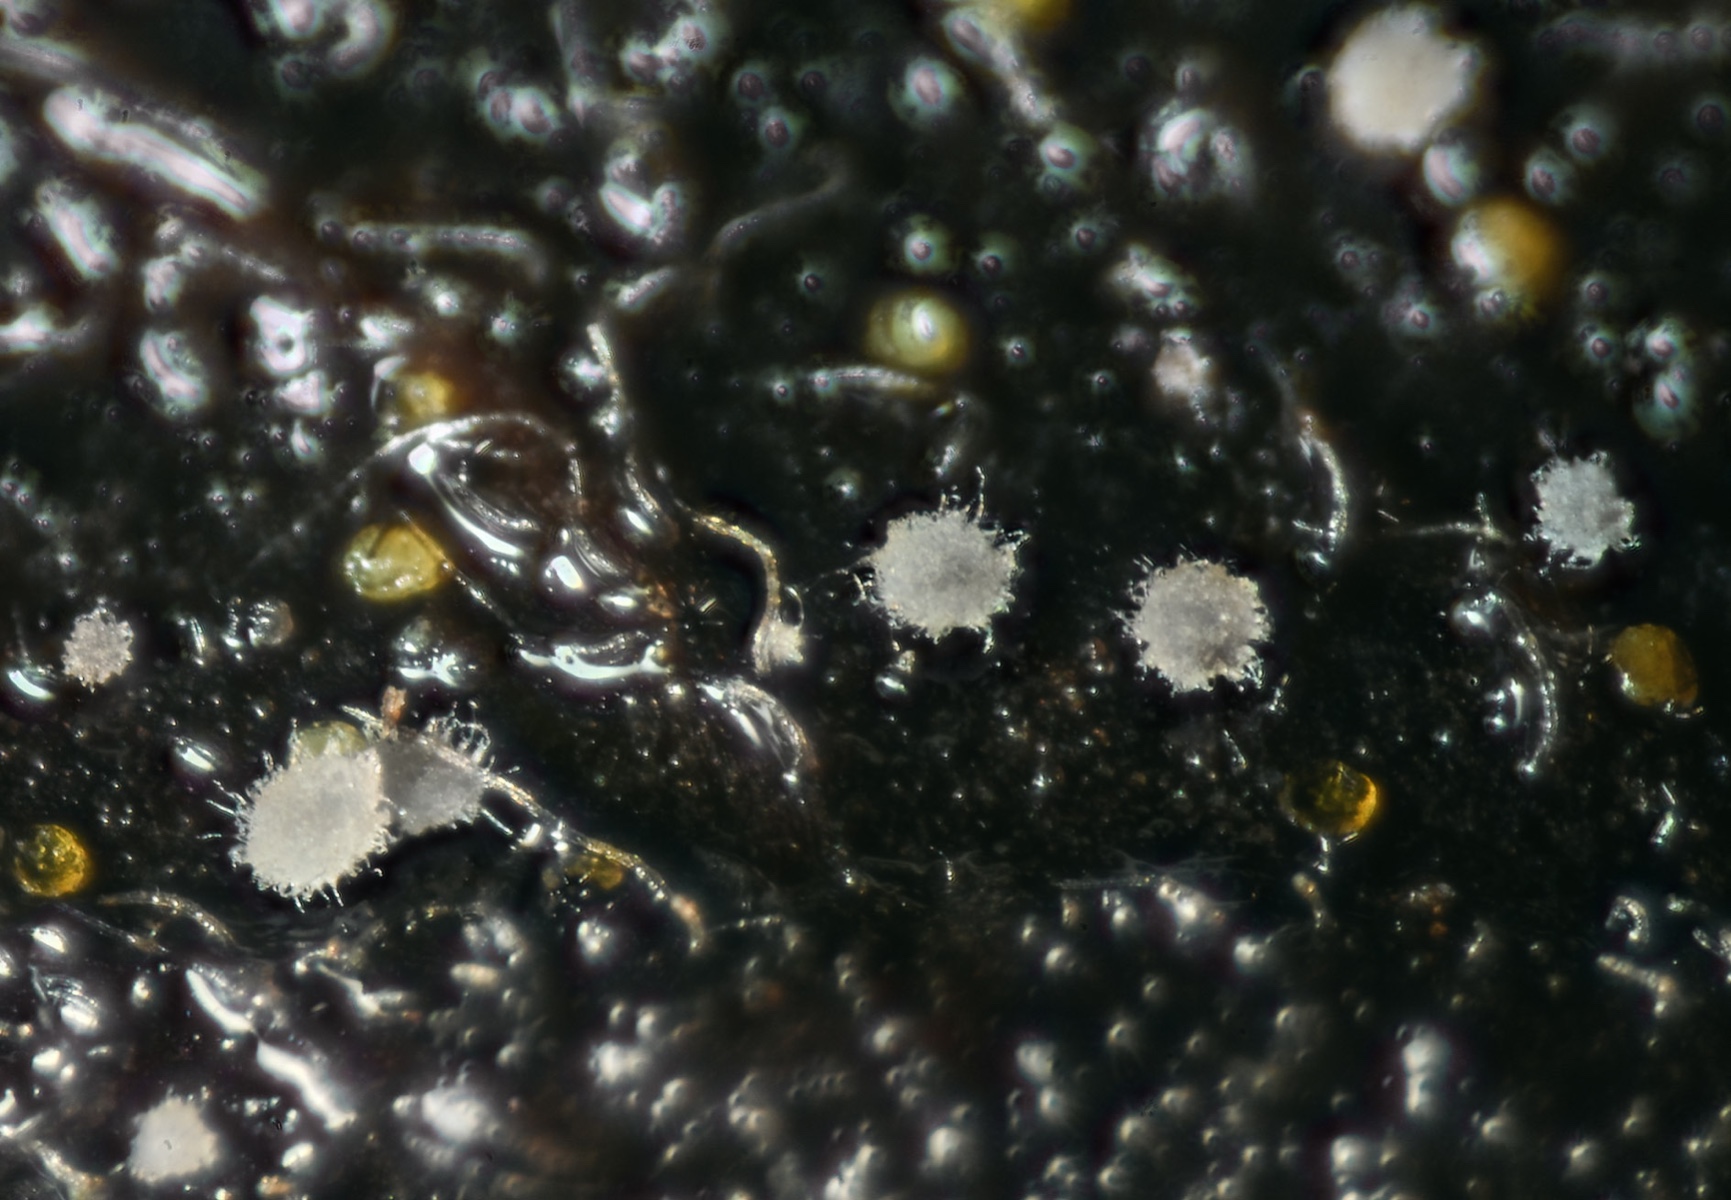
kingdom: Fungi
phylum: Ascomycota
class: Leotiomycetes
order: Helotiales
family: Hyaloscyphaceae
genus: Hyaloscypha
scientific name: Hyaloscypha carpinacea
